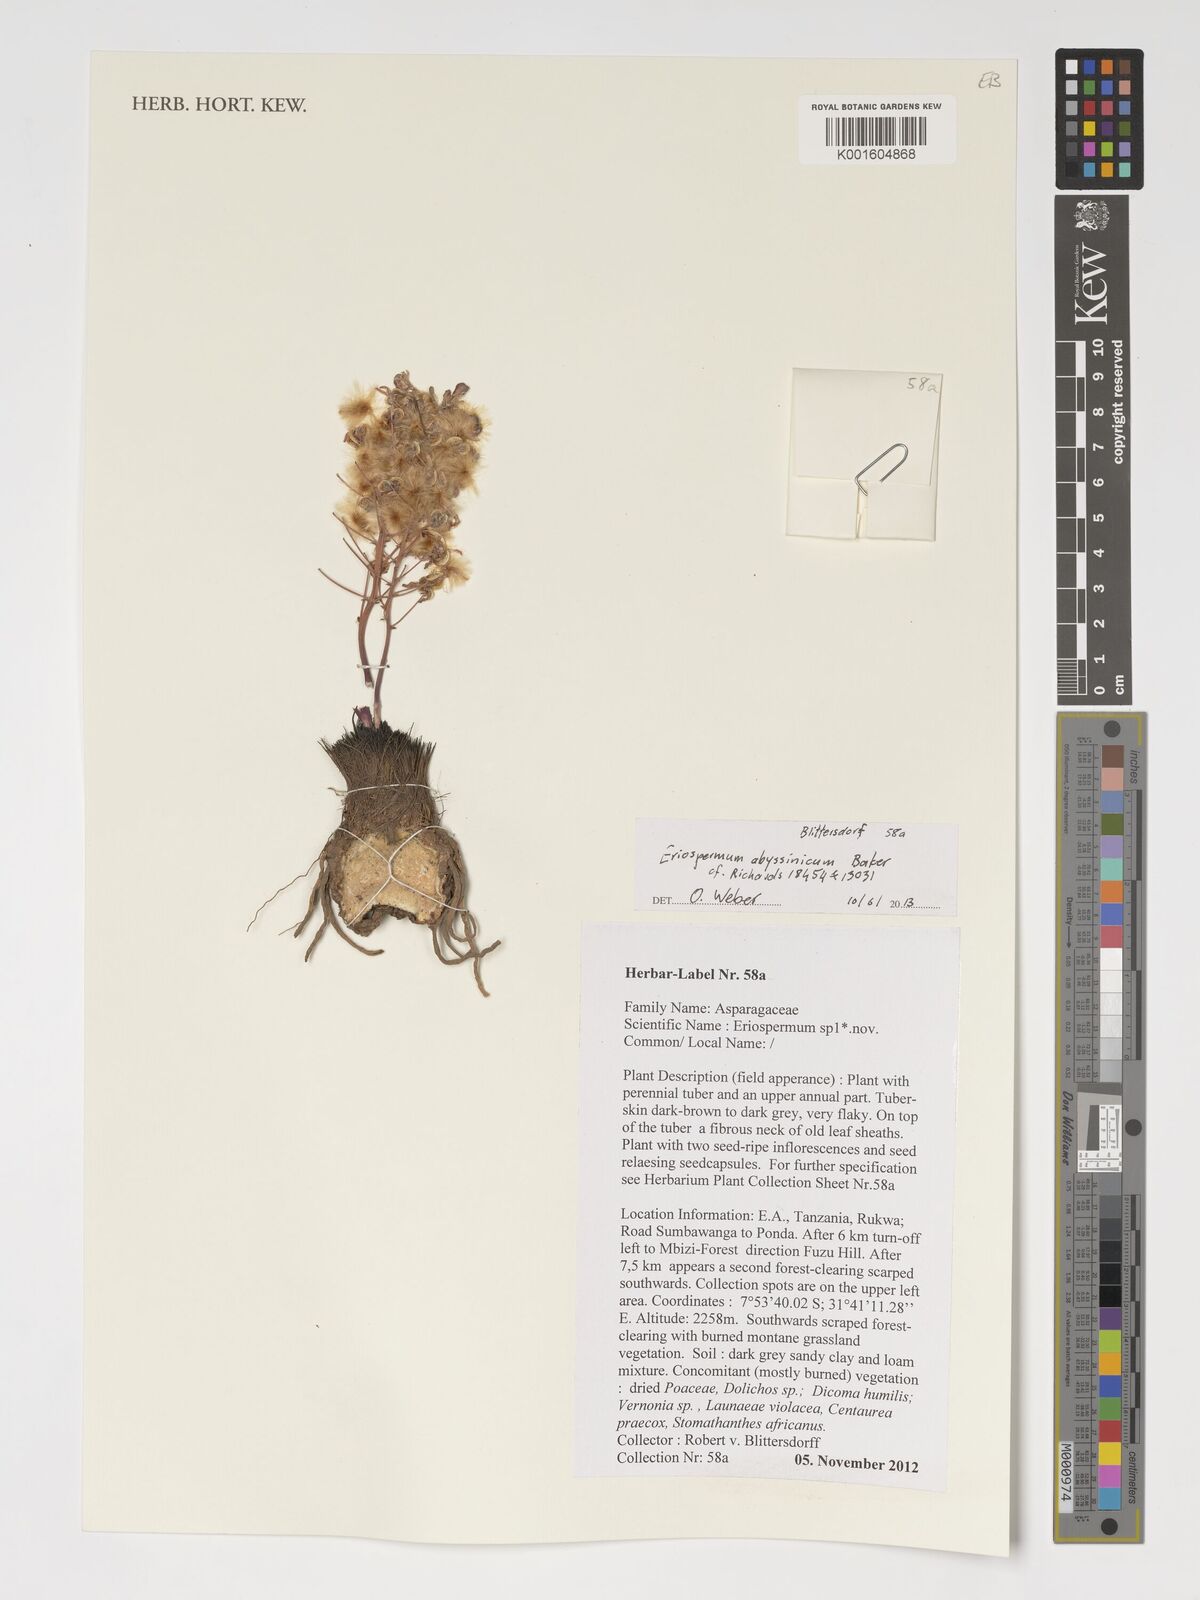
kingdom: Plantae
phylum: Tracheophyta
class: Liliopsida
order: Asparagales
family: Asparagaceae
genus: Eriospermum
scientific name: Eriospermum abyssinicum
